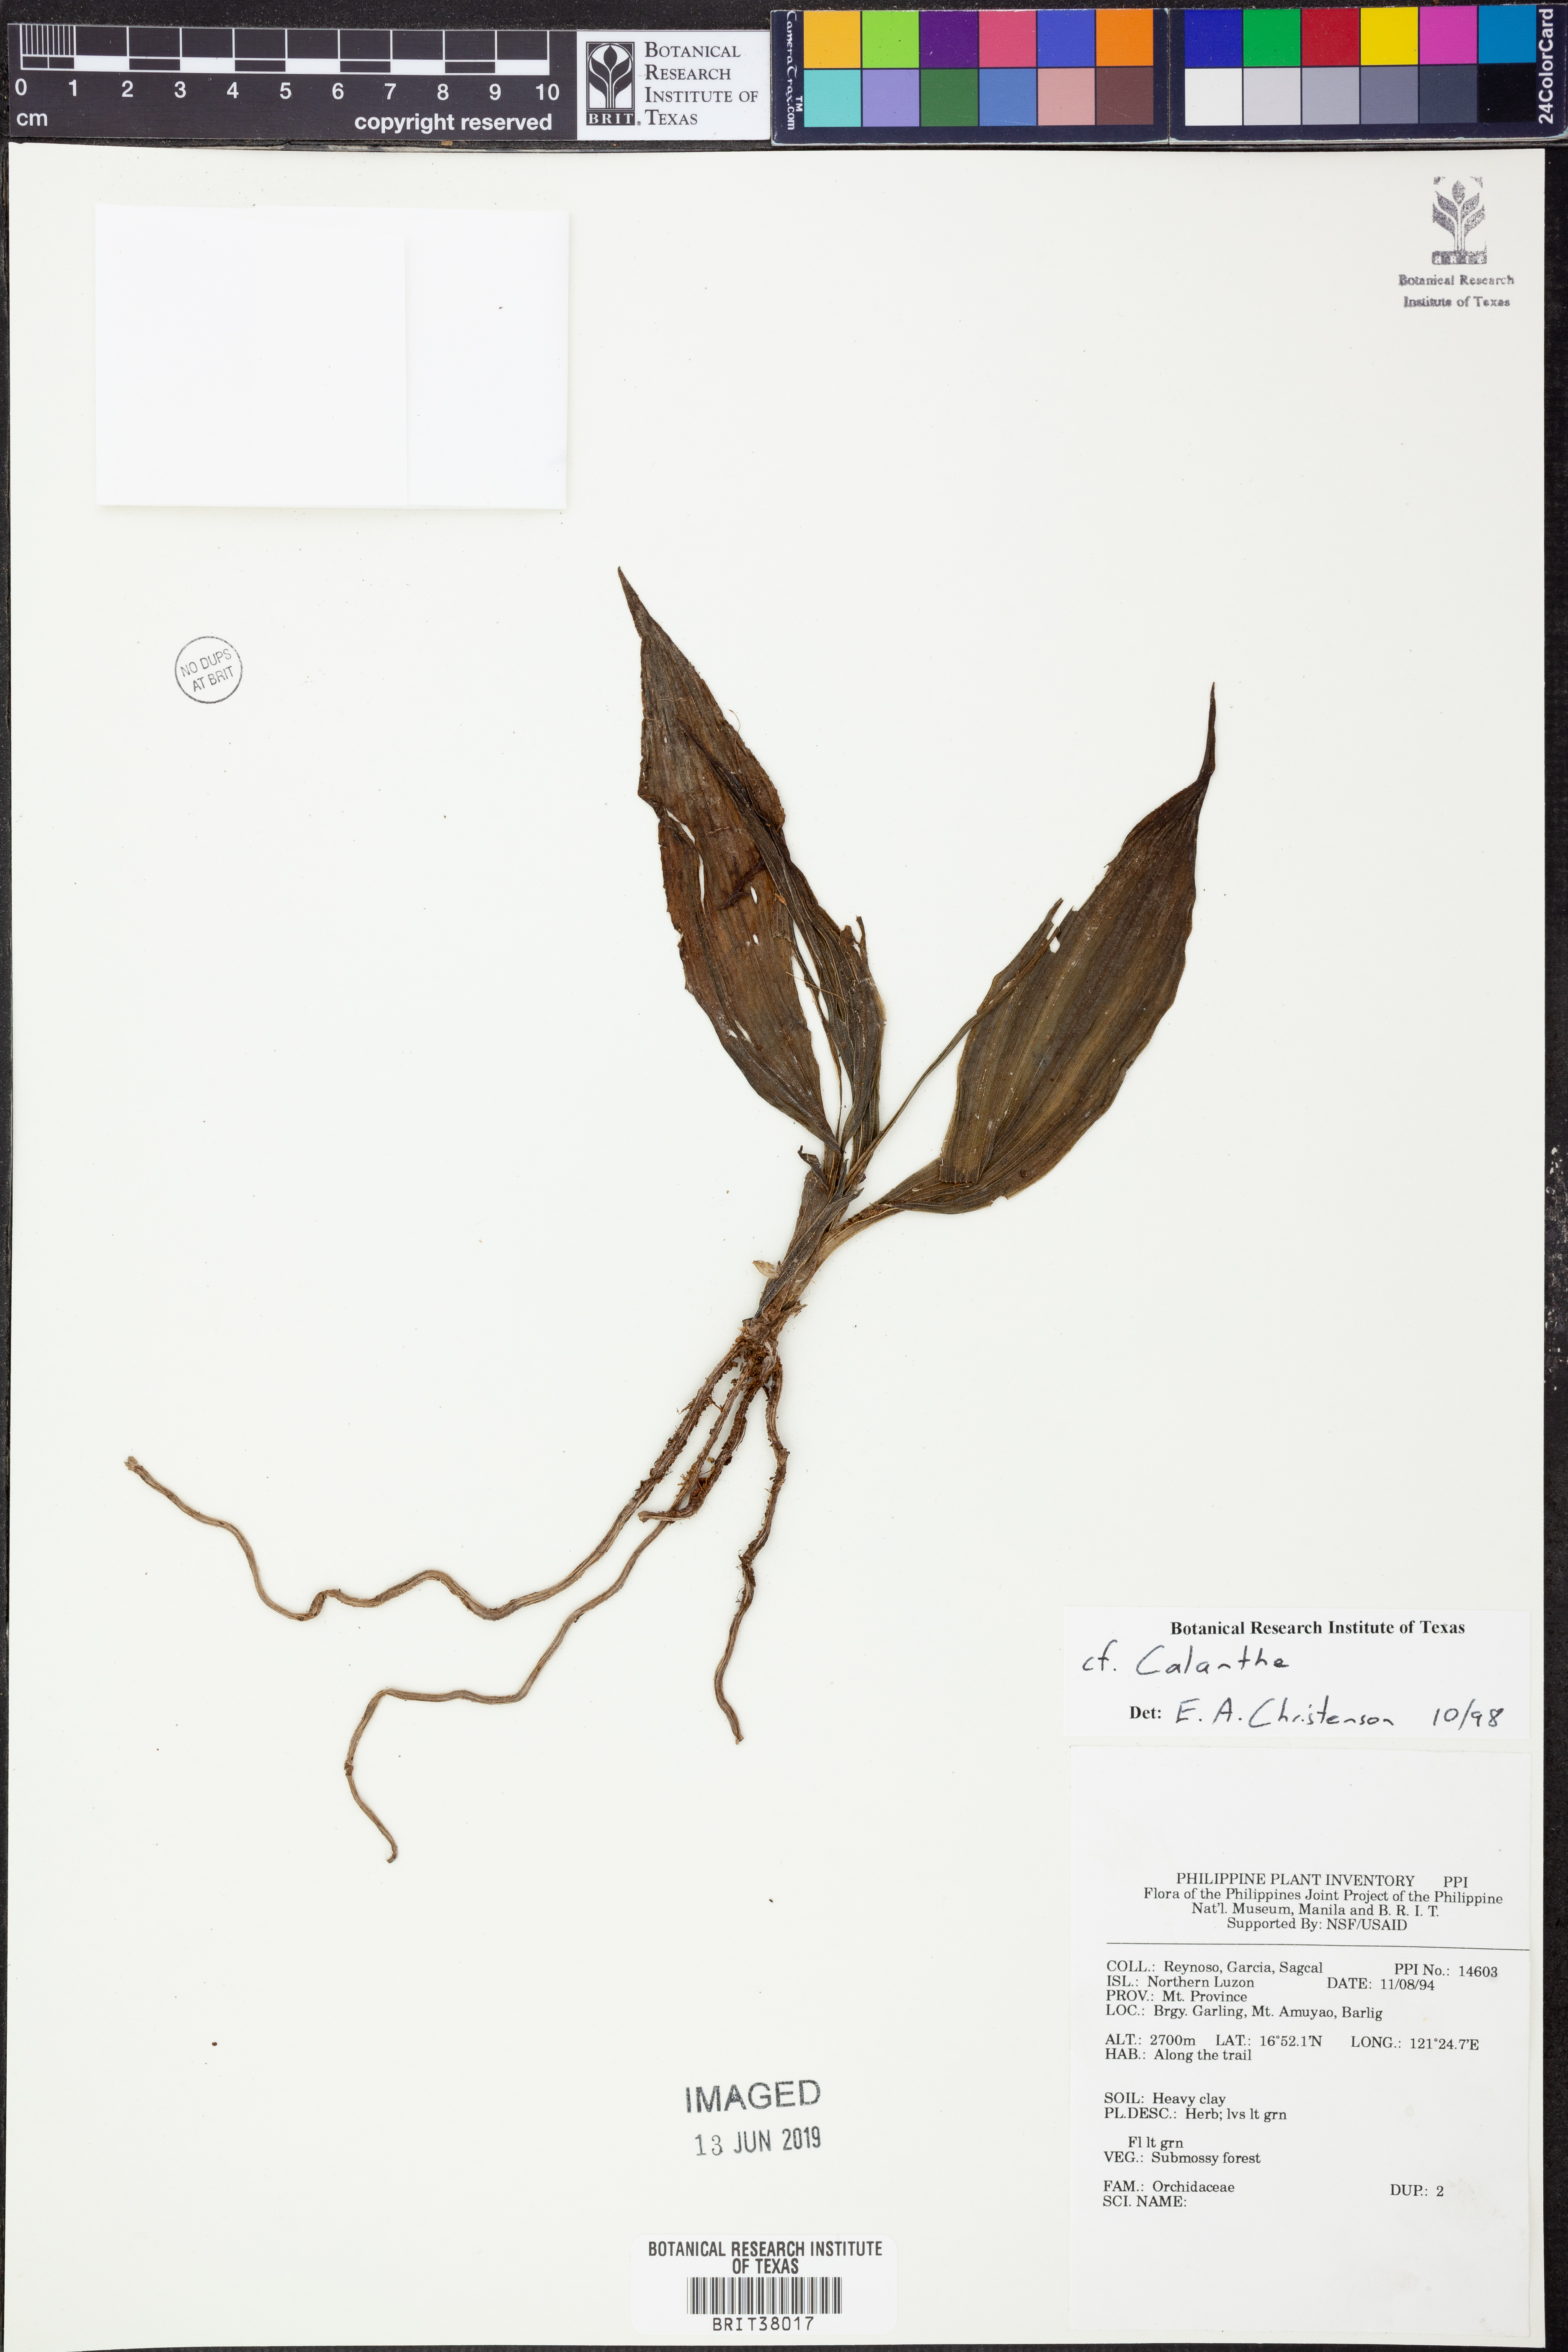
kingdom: Plantae
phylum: Tracheophyta
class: Liliopsida
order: Asparagales
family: Orchidaceae
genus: Calanthe
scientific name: Calanthe
